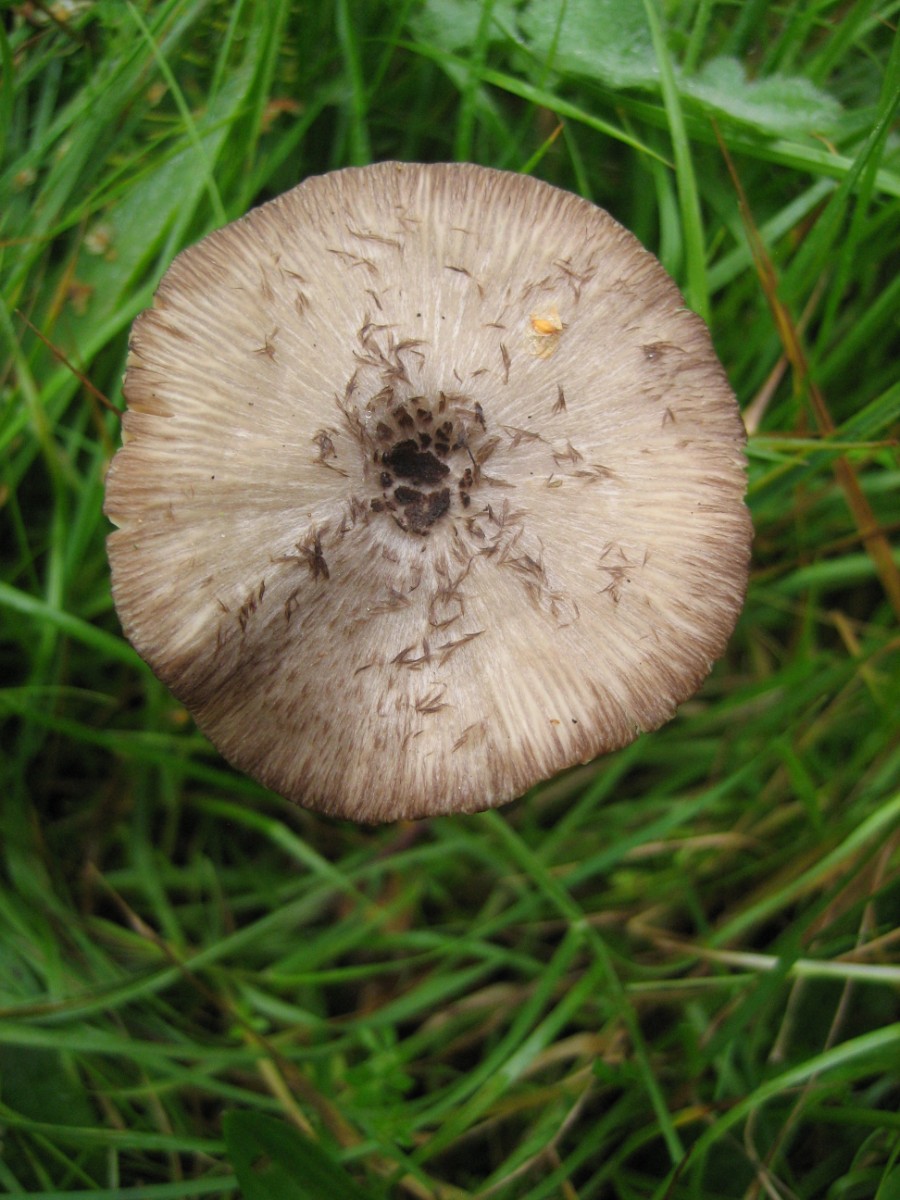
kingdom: Fungi
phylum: Basidiomycota
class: Agaricomycetes
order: Agaricales
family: Entolomataceae
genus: Entoloma
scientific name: Entoloma
